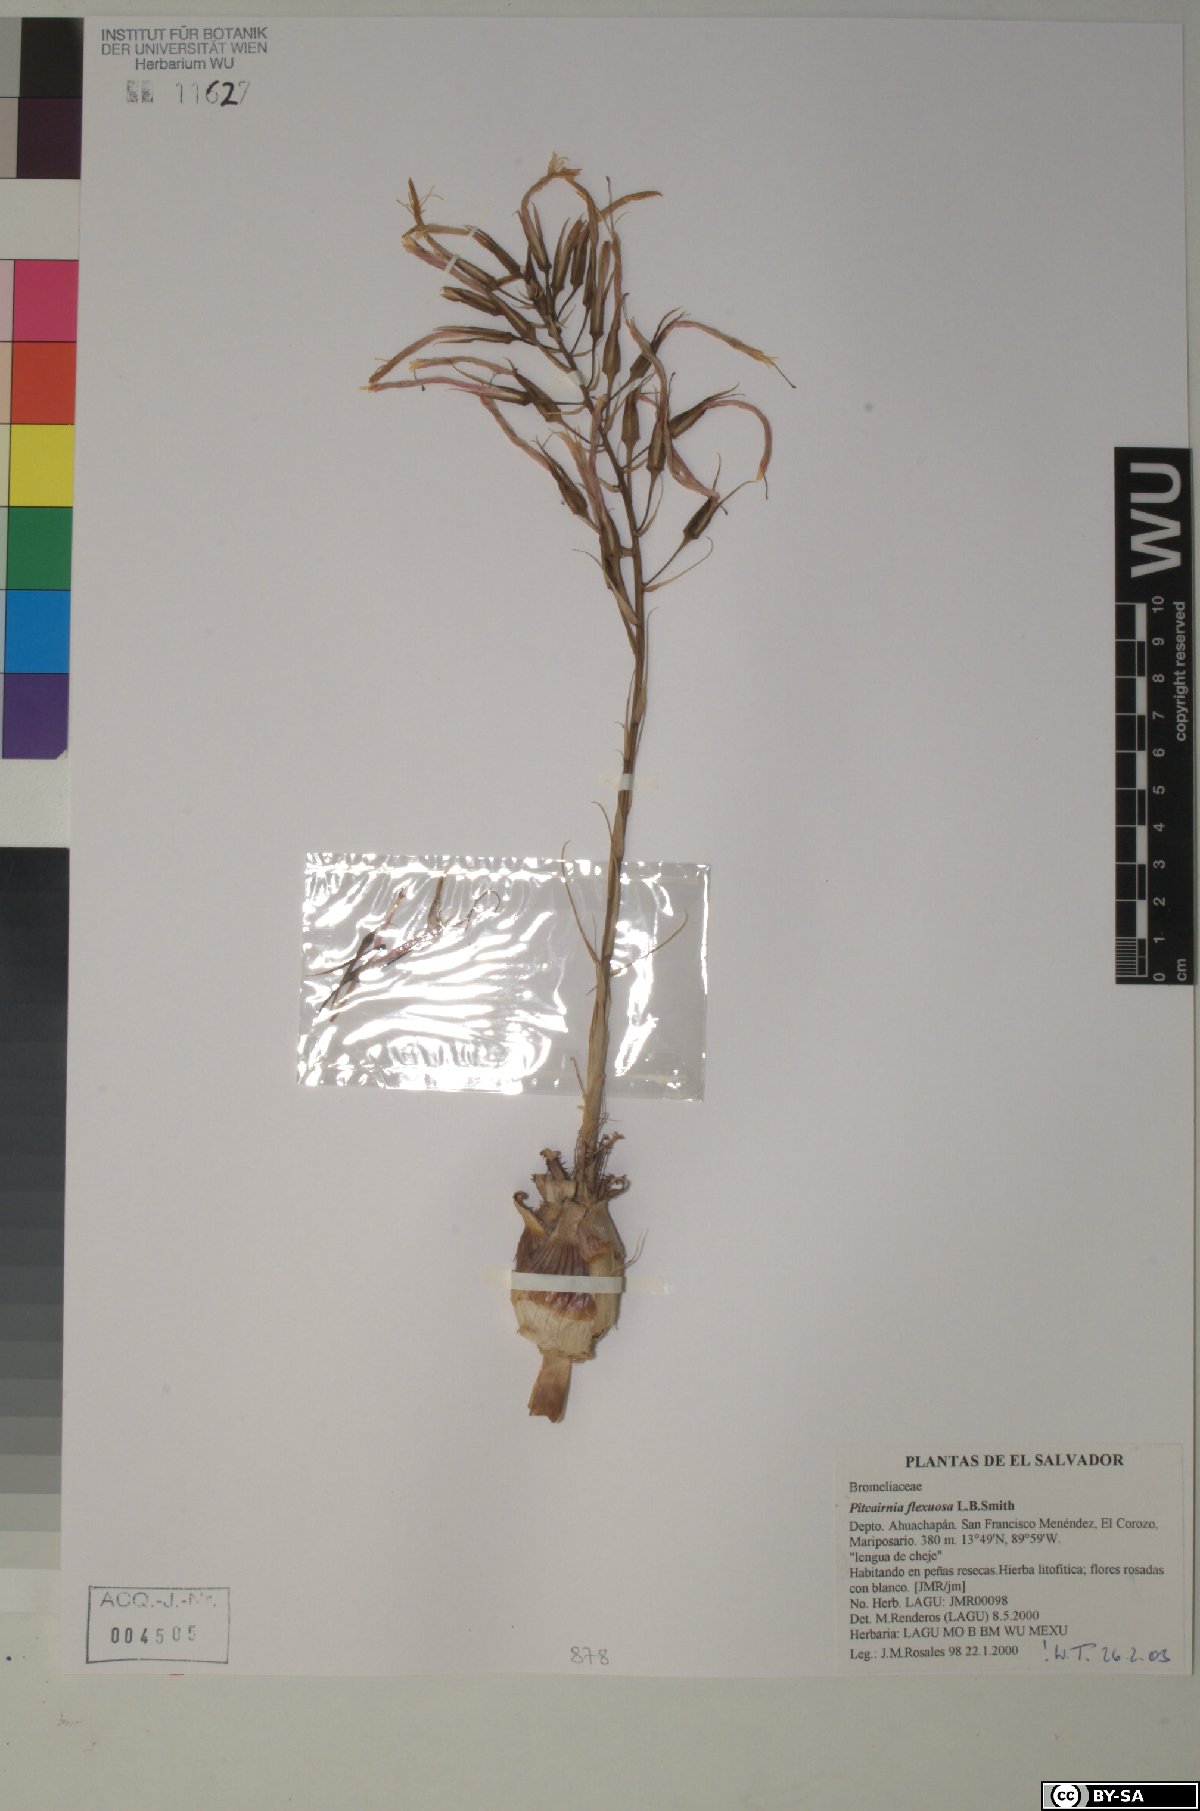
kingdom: Plantae
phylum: Tracheophyta
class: Liliopsida
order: Poales
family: Bromeliaceae
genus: Pitcairnia
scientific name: Pitcairnia flexuosa
